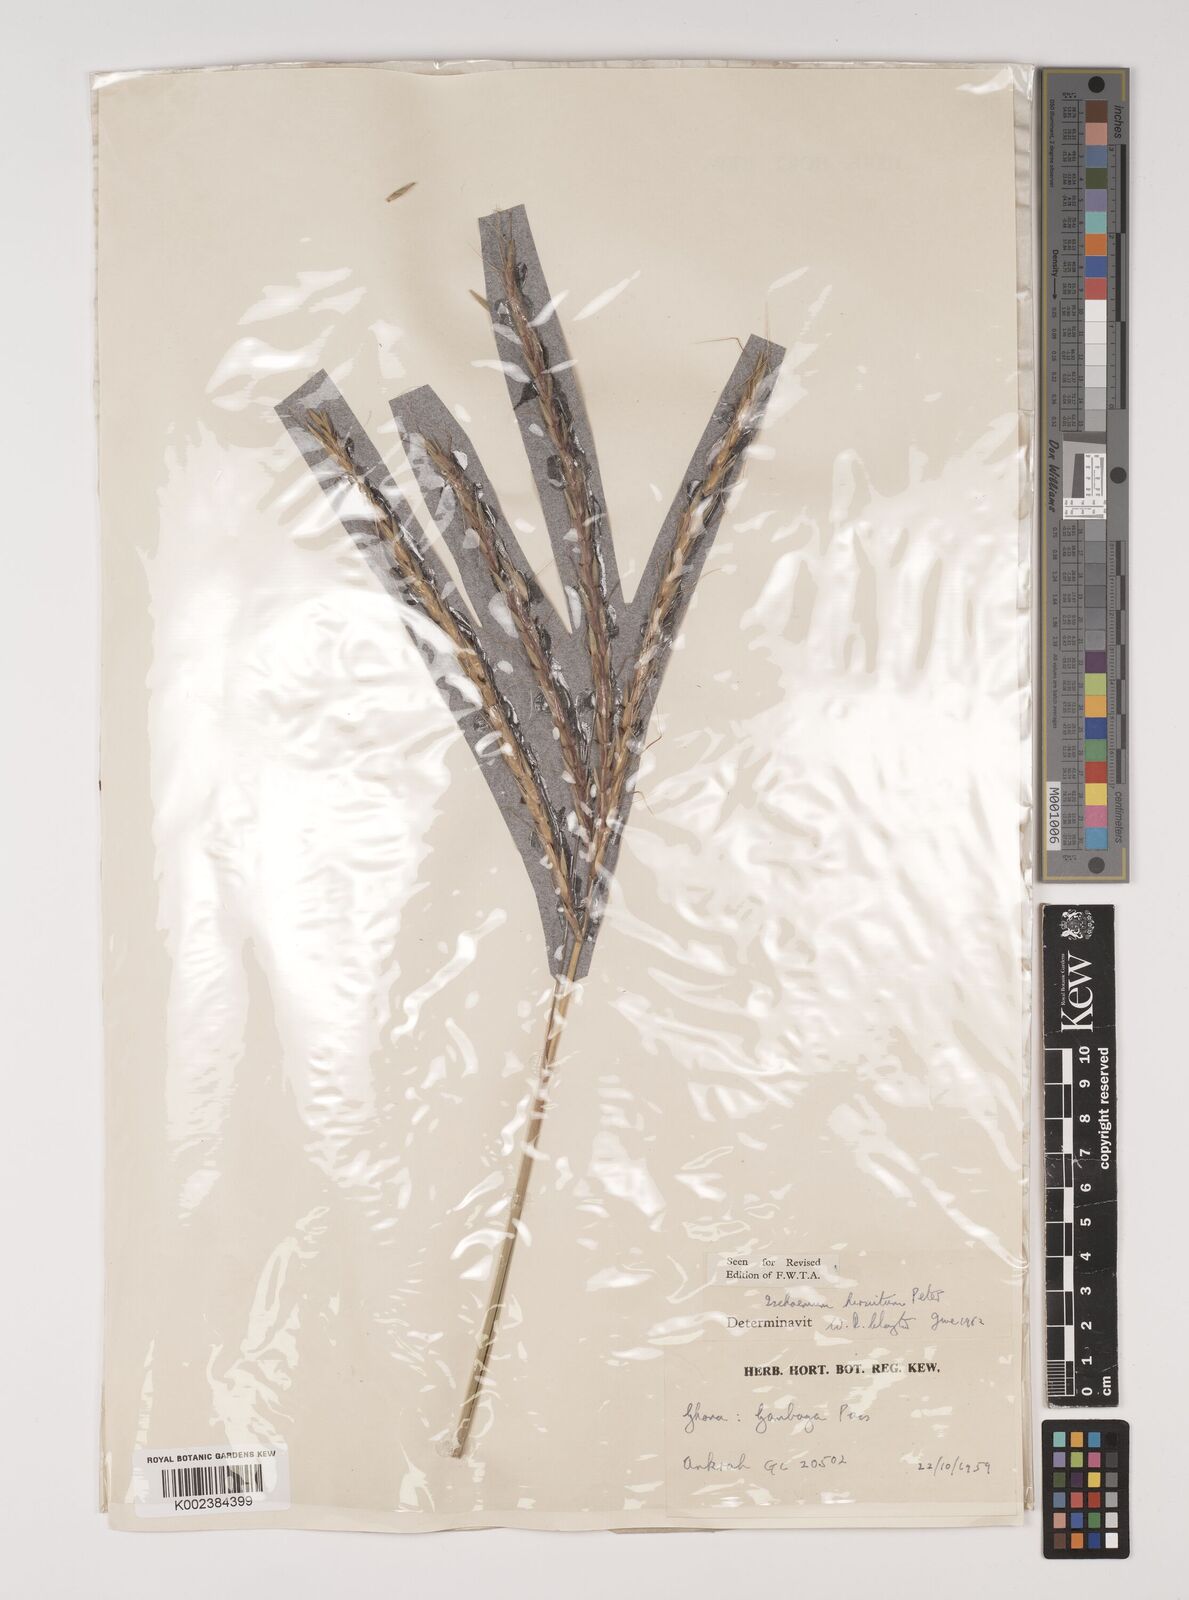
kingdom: Plantae
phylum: Tracheophyta
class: Liliopsida
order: Poales
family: Poaceae
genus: Rottboellia
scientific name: Rottboellia villosa
